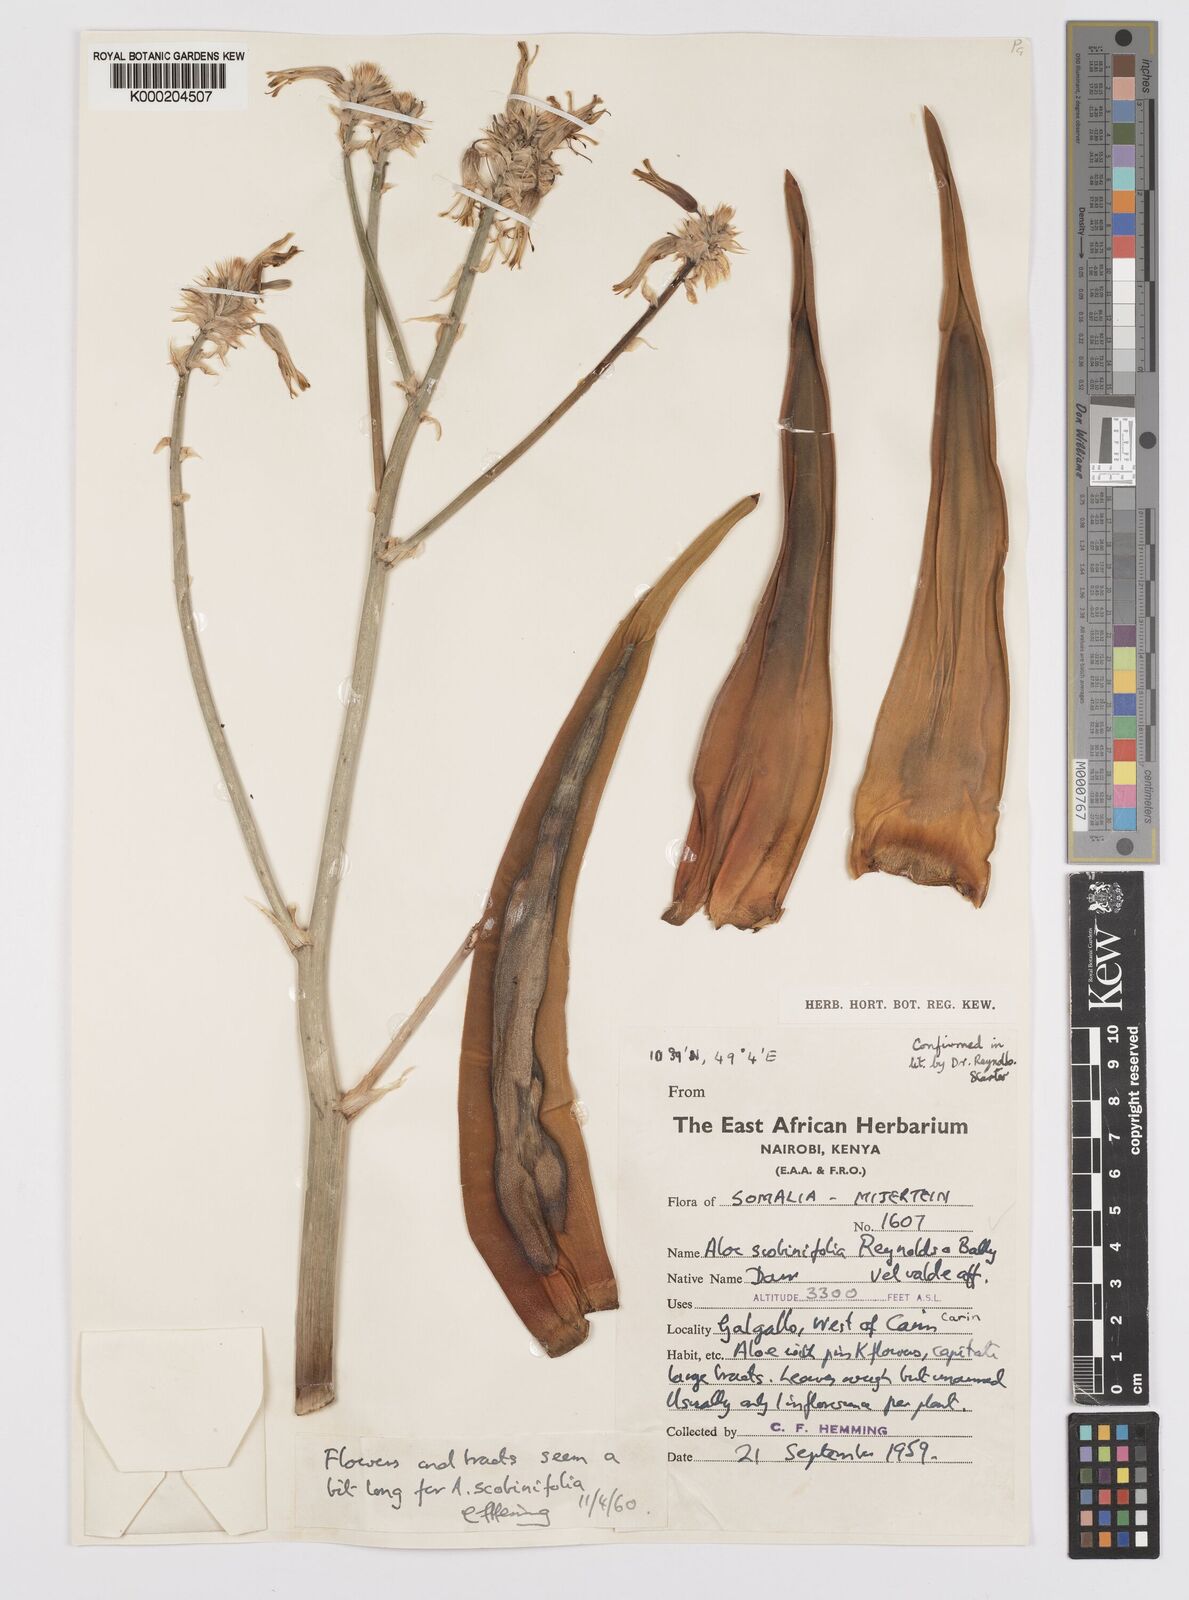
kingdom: Plantae
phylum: Tracheophyta
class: Liliopsida
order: Asparagales
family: Asphodelaceae
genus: Aloe
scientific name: Aloe scobinifolia
